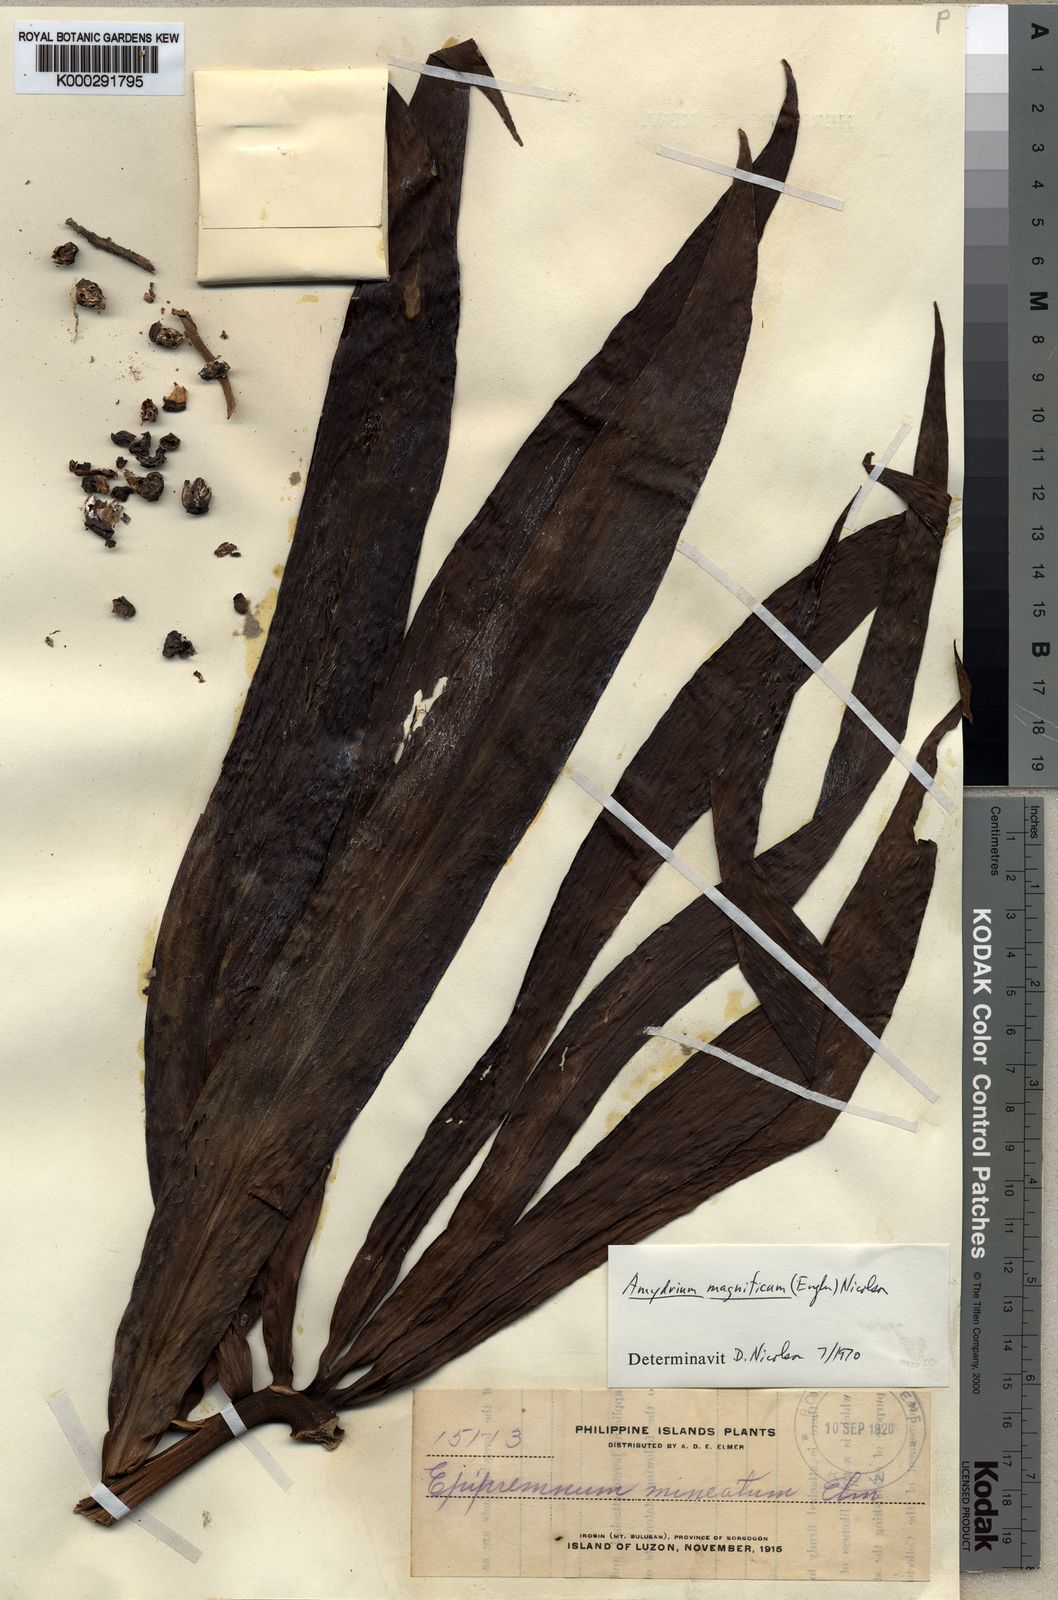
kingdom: Plantae
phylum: Tracheophyta
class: Liliopsida
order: Alismatales
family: Araceae
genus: Amydrium
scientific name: Amydrium zippelianum
